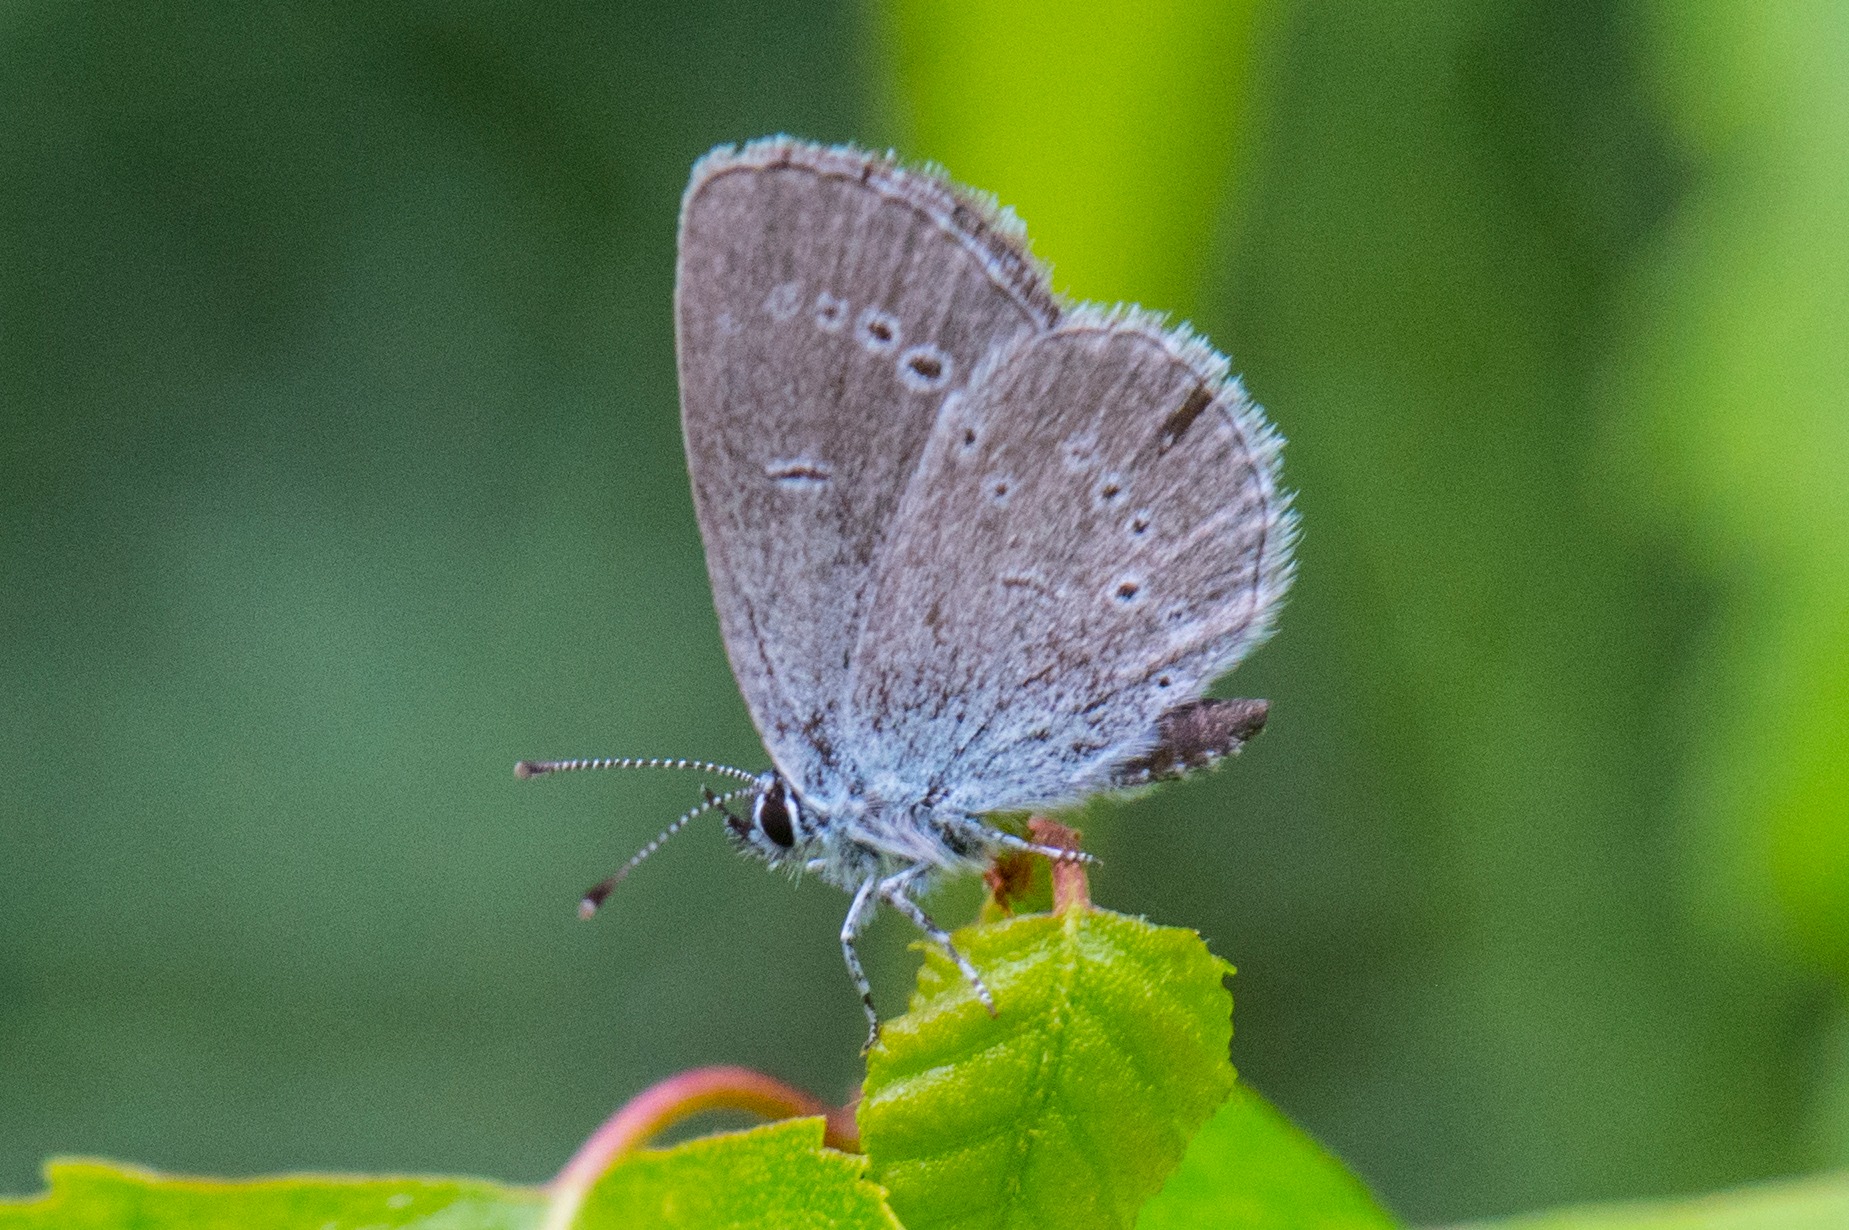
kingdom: Animalia
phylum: Arthropoda
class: Insecta
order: Lepidoptera
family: Lycaenidae
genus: Cupido
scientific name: Cupido minimus
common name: Dværgblåfugl
